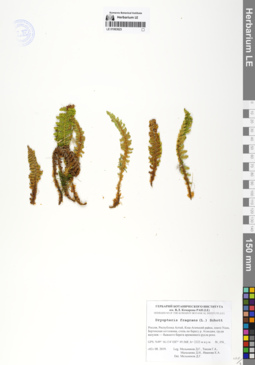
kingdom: Plantae
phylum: Tracheophyta
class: Polypodiopsida
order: Polypodiales
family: Dryopteridaceae
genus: Dryopteris
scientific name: Dryopteris fragrans
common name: Fragrant wood fern
